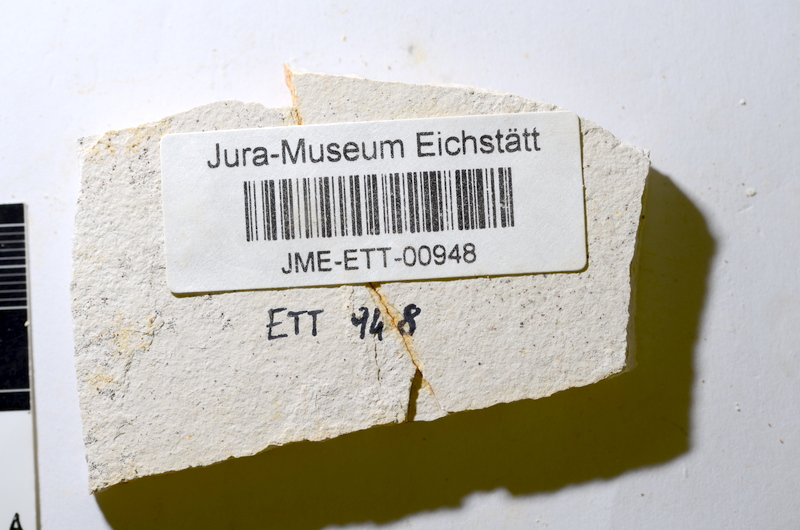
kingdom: Animalia
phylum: Chordata
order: Salmoniformes
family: Orthogonikleithridae
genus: Orthogonikleithrus
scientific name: Orthogonikleithrus hoelli
